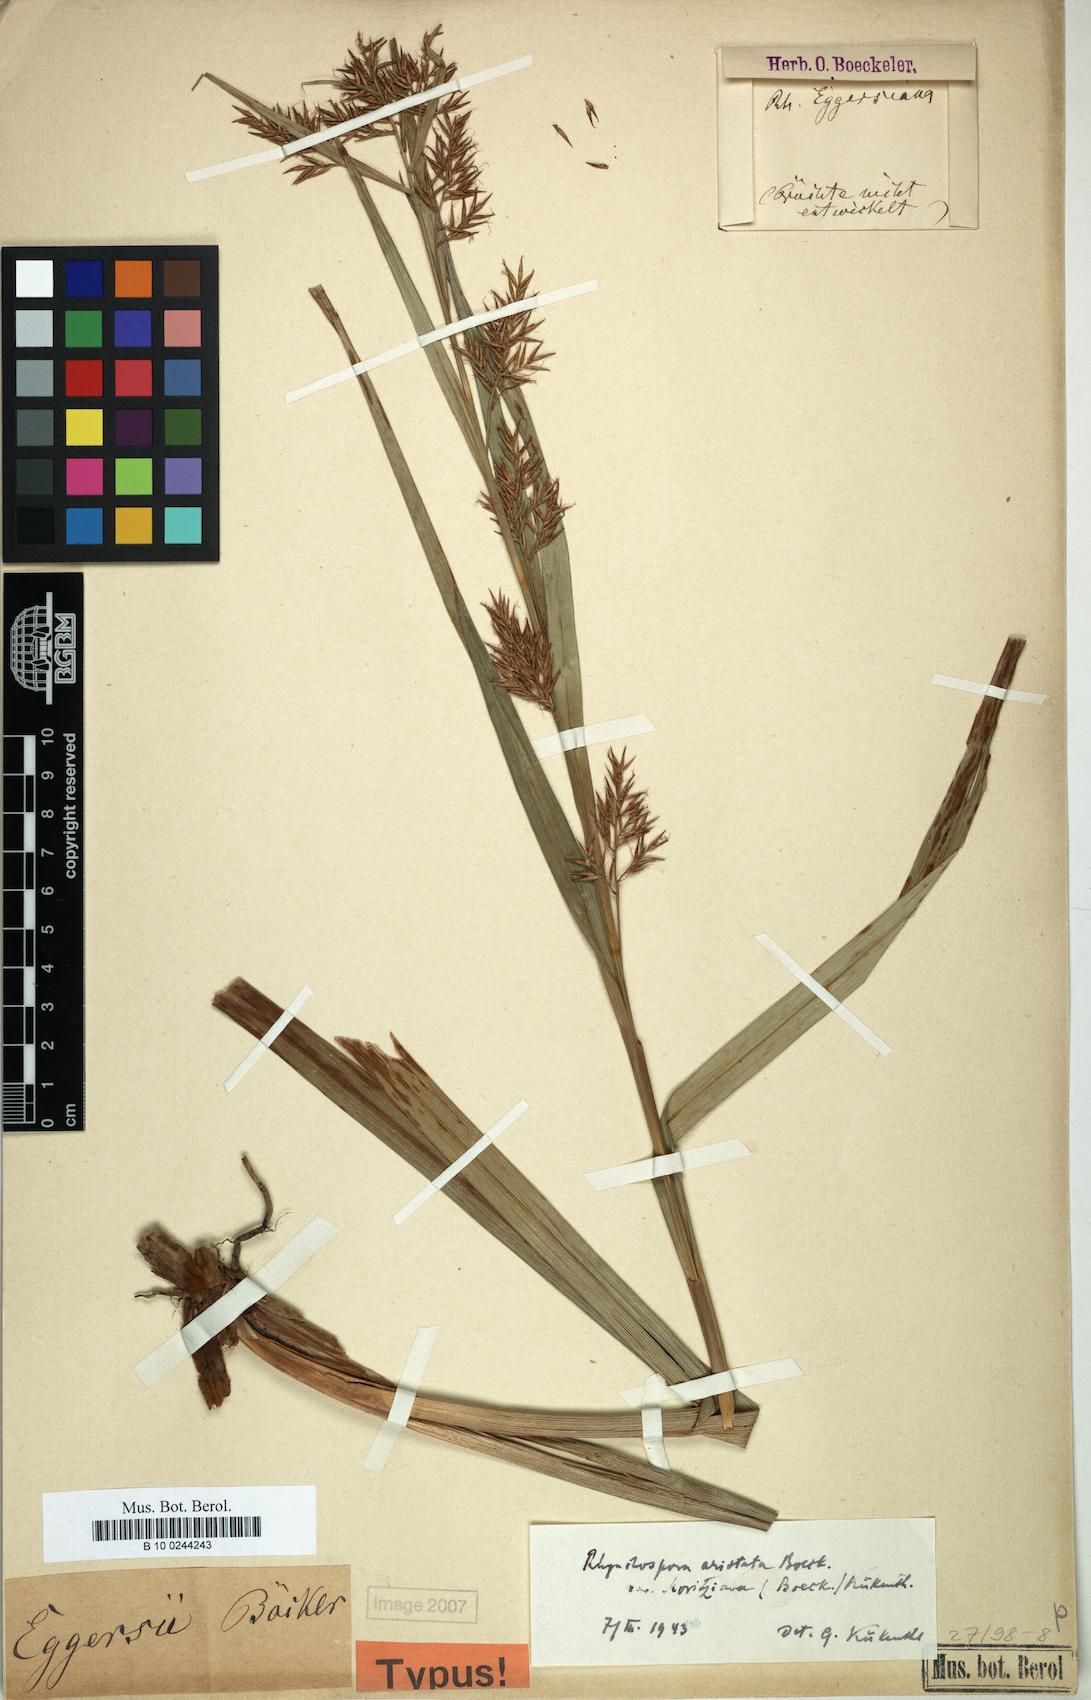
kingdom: Plantae
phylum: Tracheophyta
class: Liliopsida
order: Poales
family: Cyperaceae
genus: Rhynchospora
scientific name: Rhynchospora aristata
